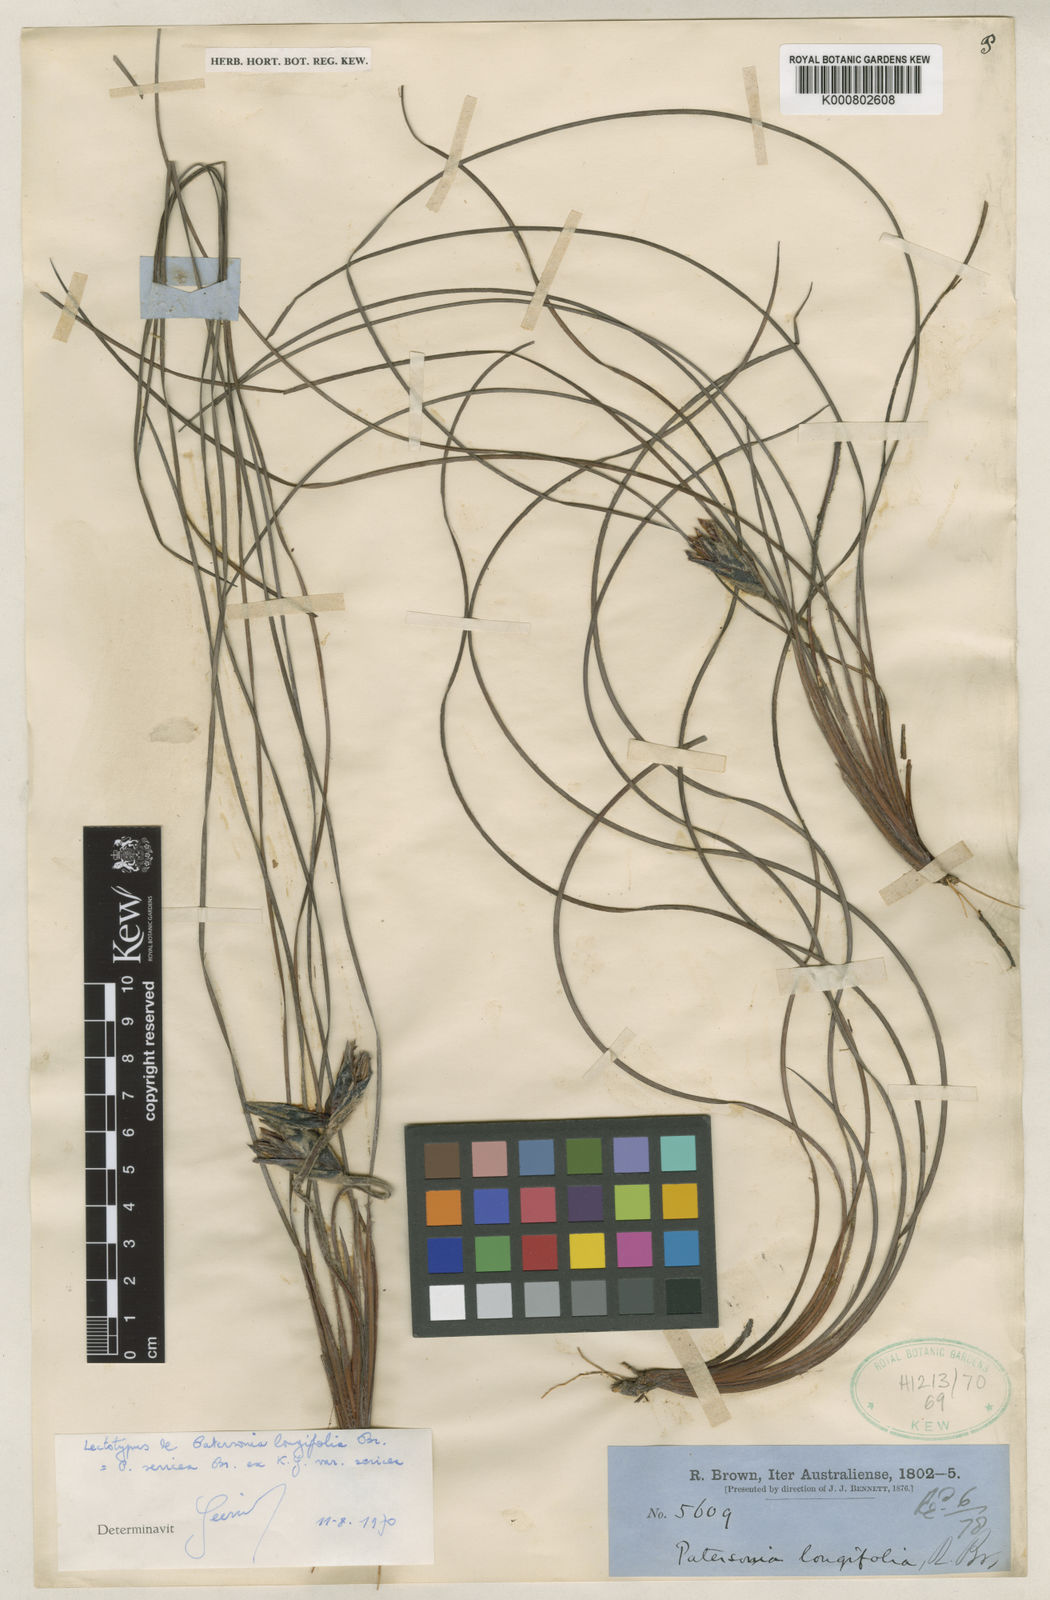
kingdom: Plantae
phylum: Tracheophyta
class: Liliopsida
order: Asparagales
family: Iridaceae
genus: Patersonia
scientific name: Patersonia sericea
